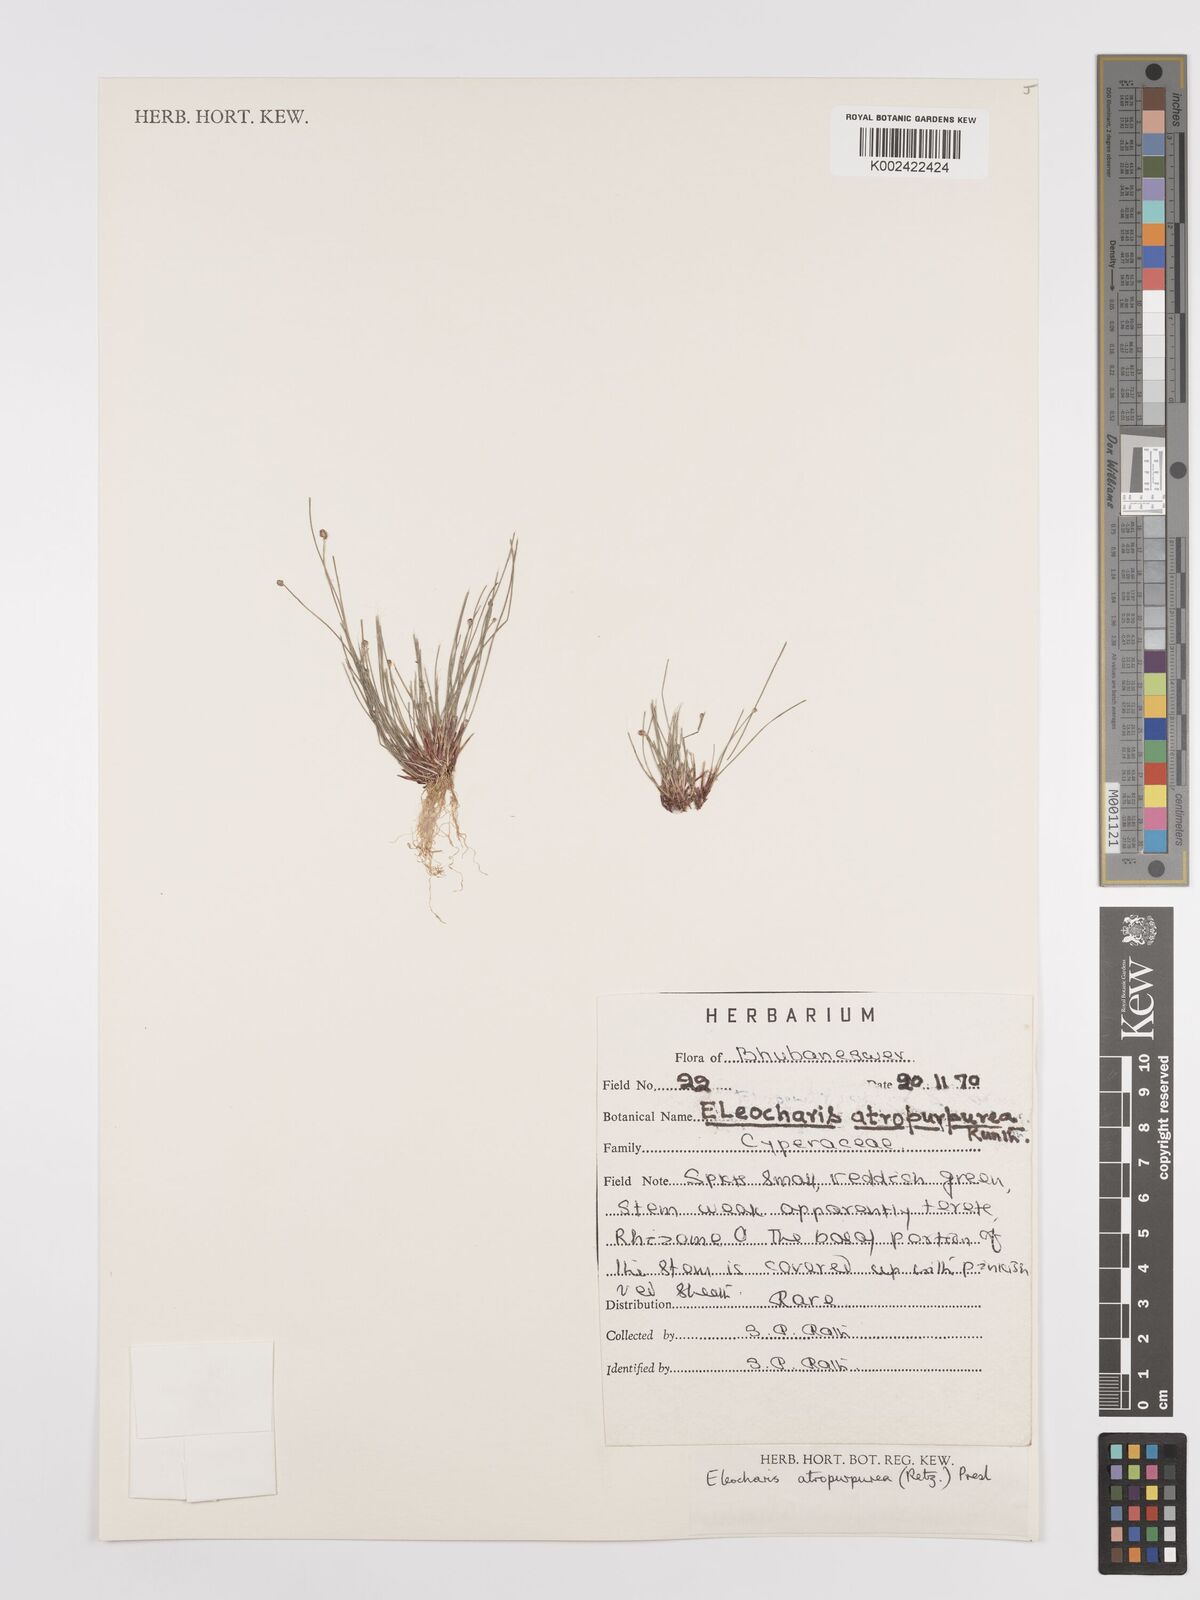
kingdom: Plantae
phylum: Tracheophyta
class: Liliopsida
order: Poales
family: Cyperaceae
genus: Eleocharis
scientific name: Eleocharis atropurpurea
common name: Purple spikerush
